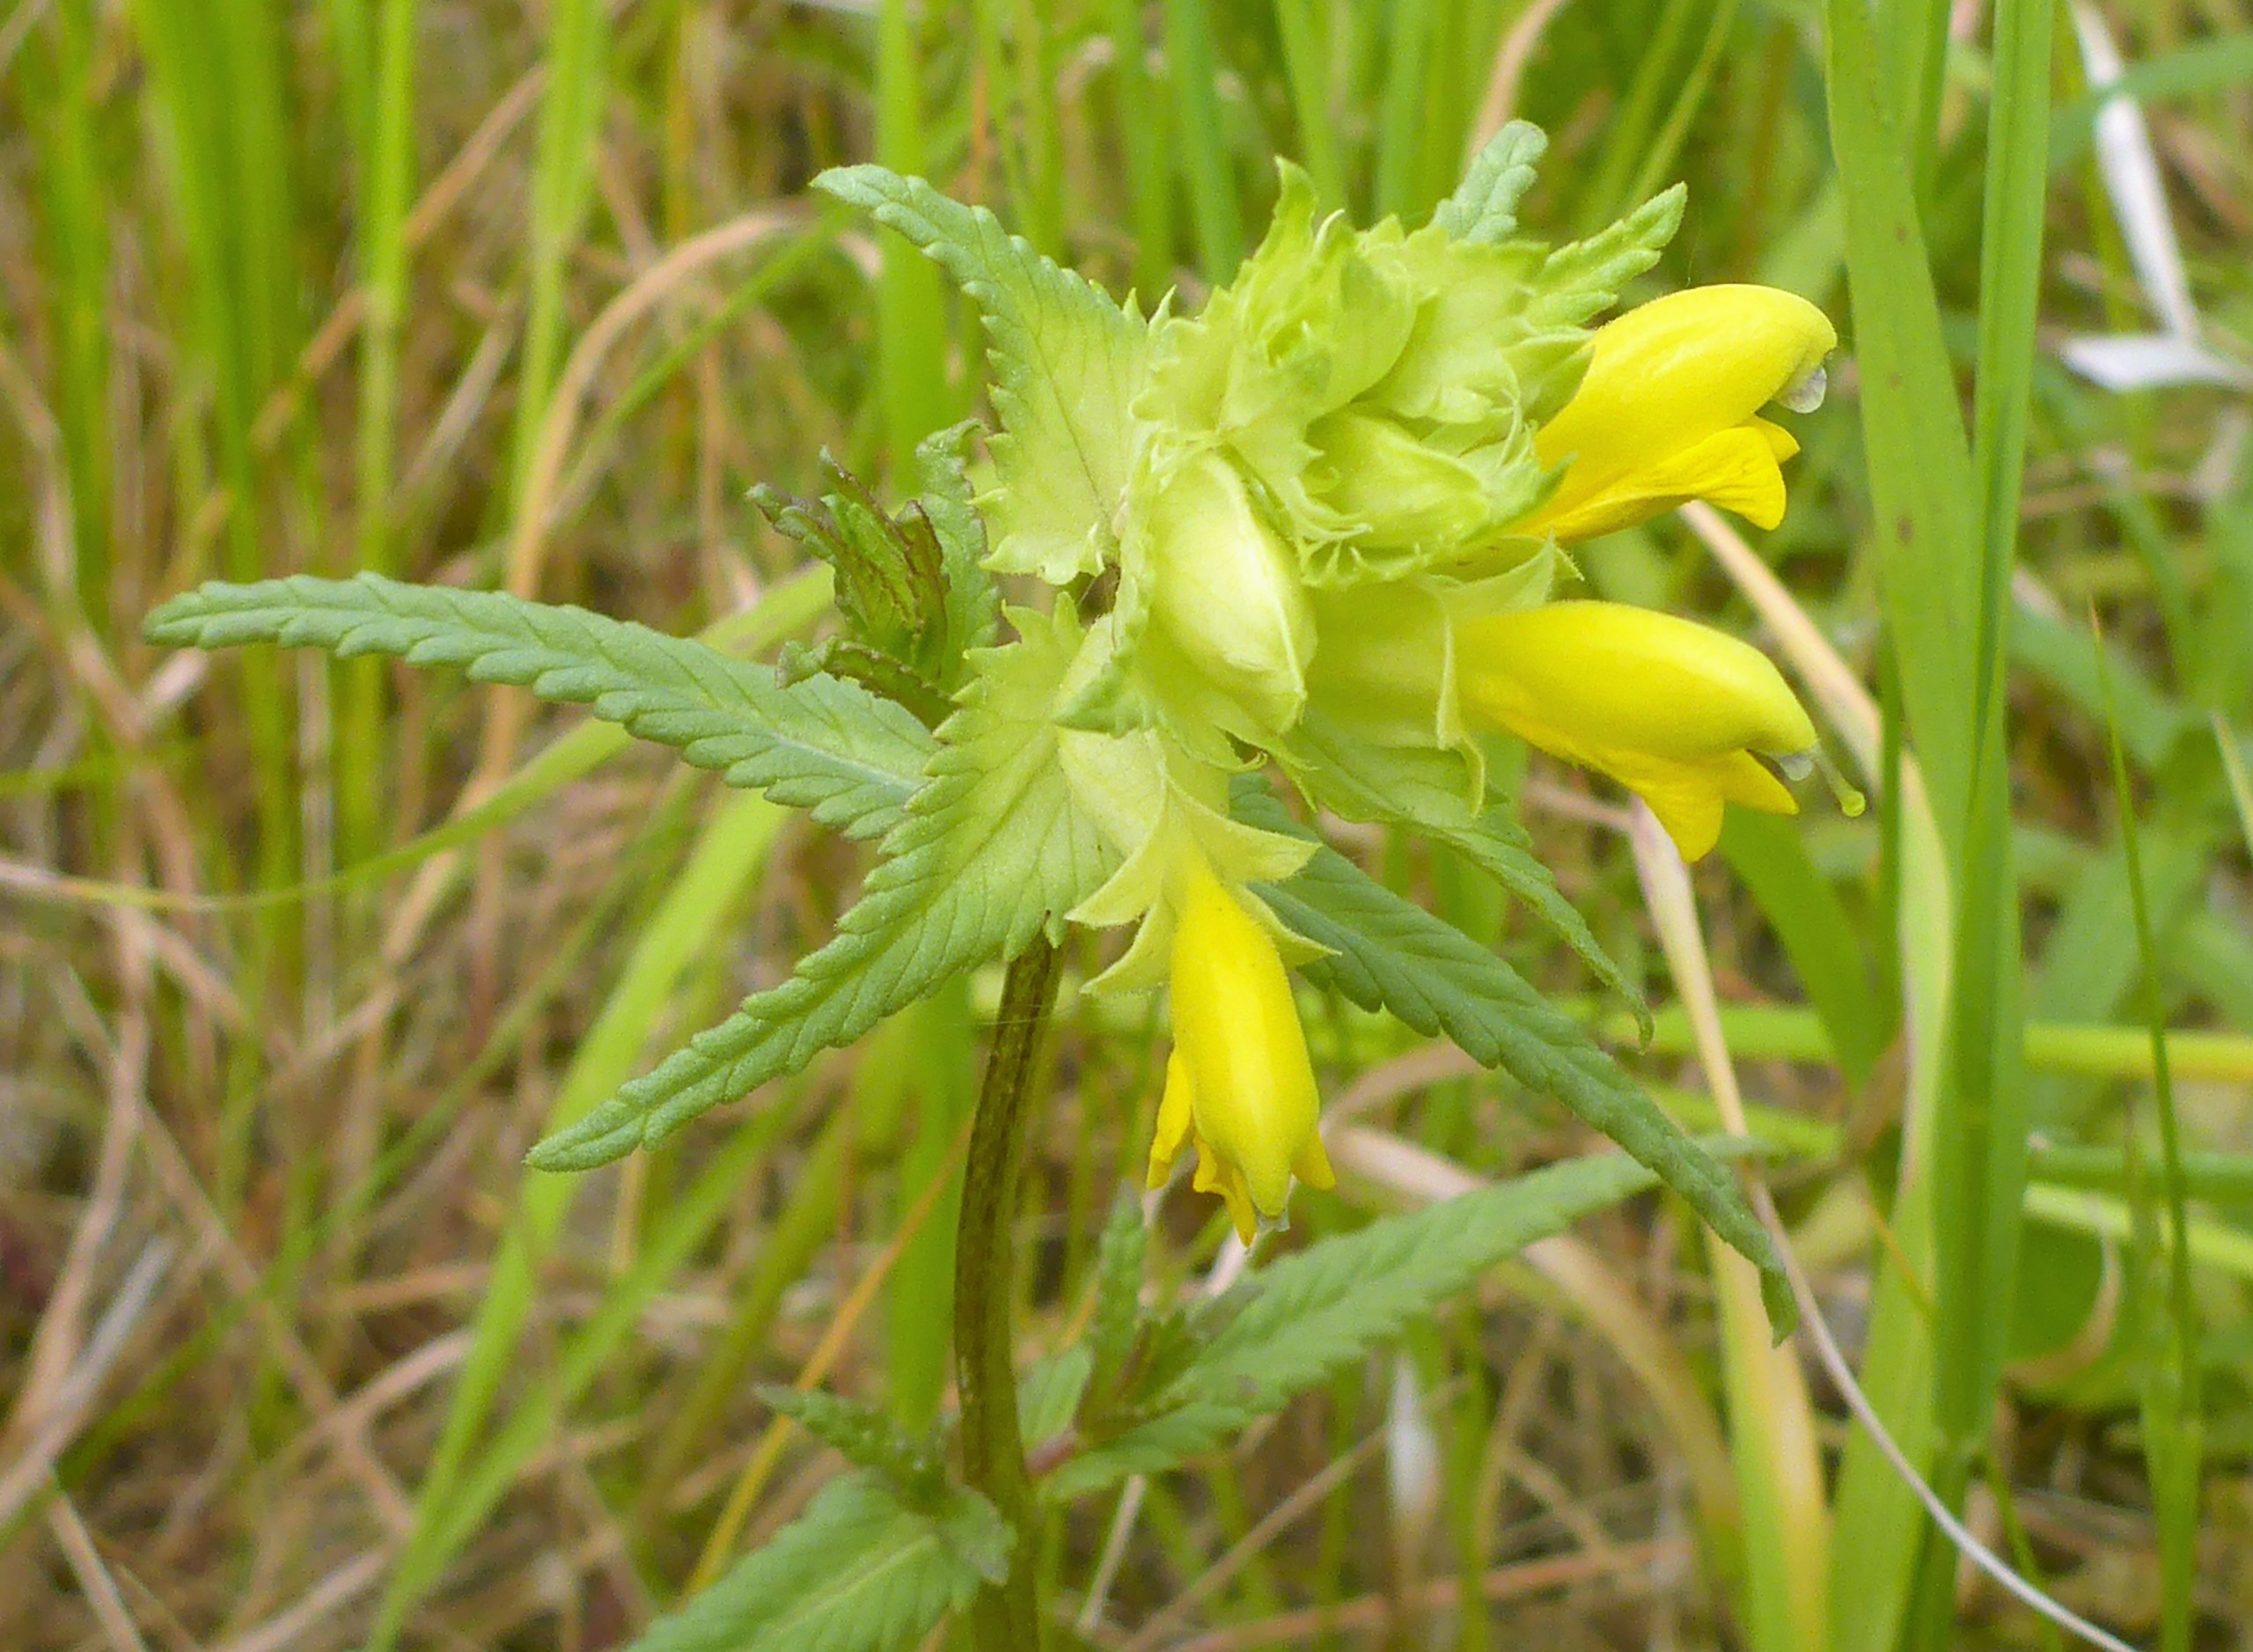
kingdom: Plantae
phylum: Tracheophyta
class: Magnoliopsida
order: Lamiales
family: Orobanchaceae
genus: Rhinanthus
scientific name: Rhinanthus
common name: Stor skjaller
